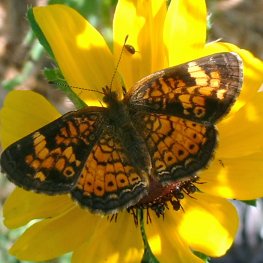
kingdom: Animalia
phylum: Arthropoda
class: Insecta
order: Lepidoptera
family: Nymphalidae
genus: Phyciodes
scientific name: Phyciodes tharos
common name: Pearl Crescent
